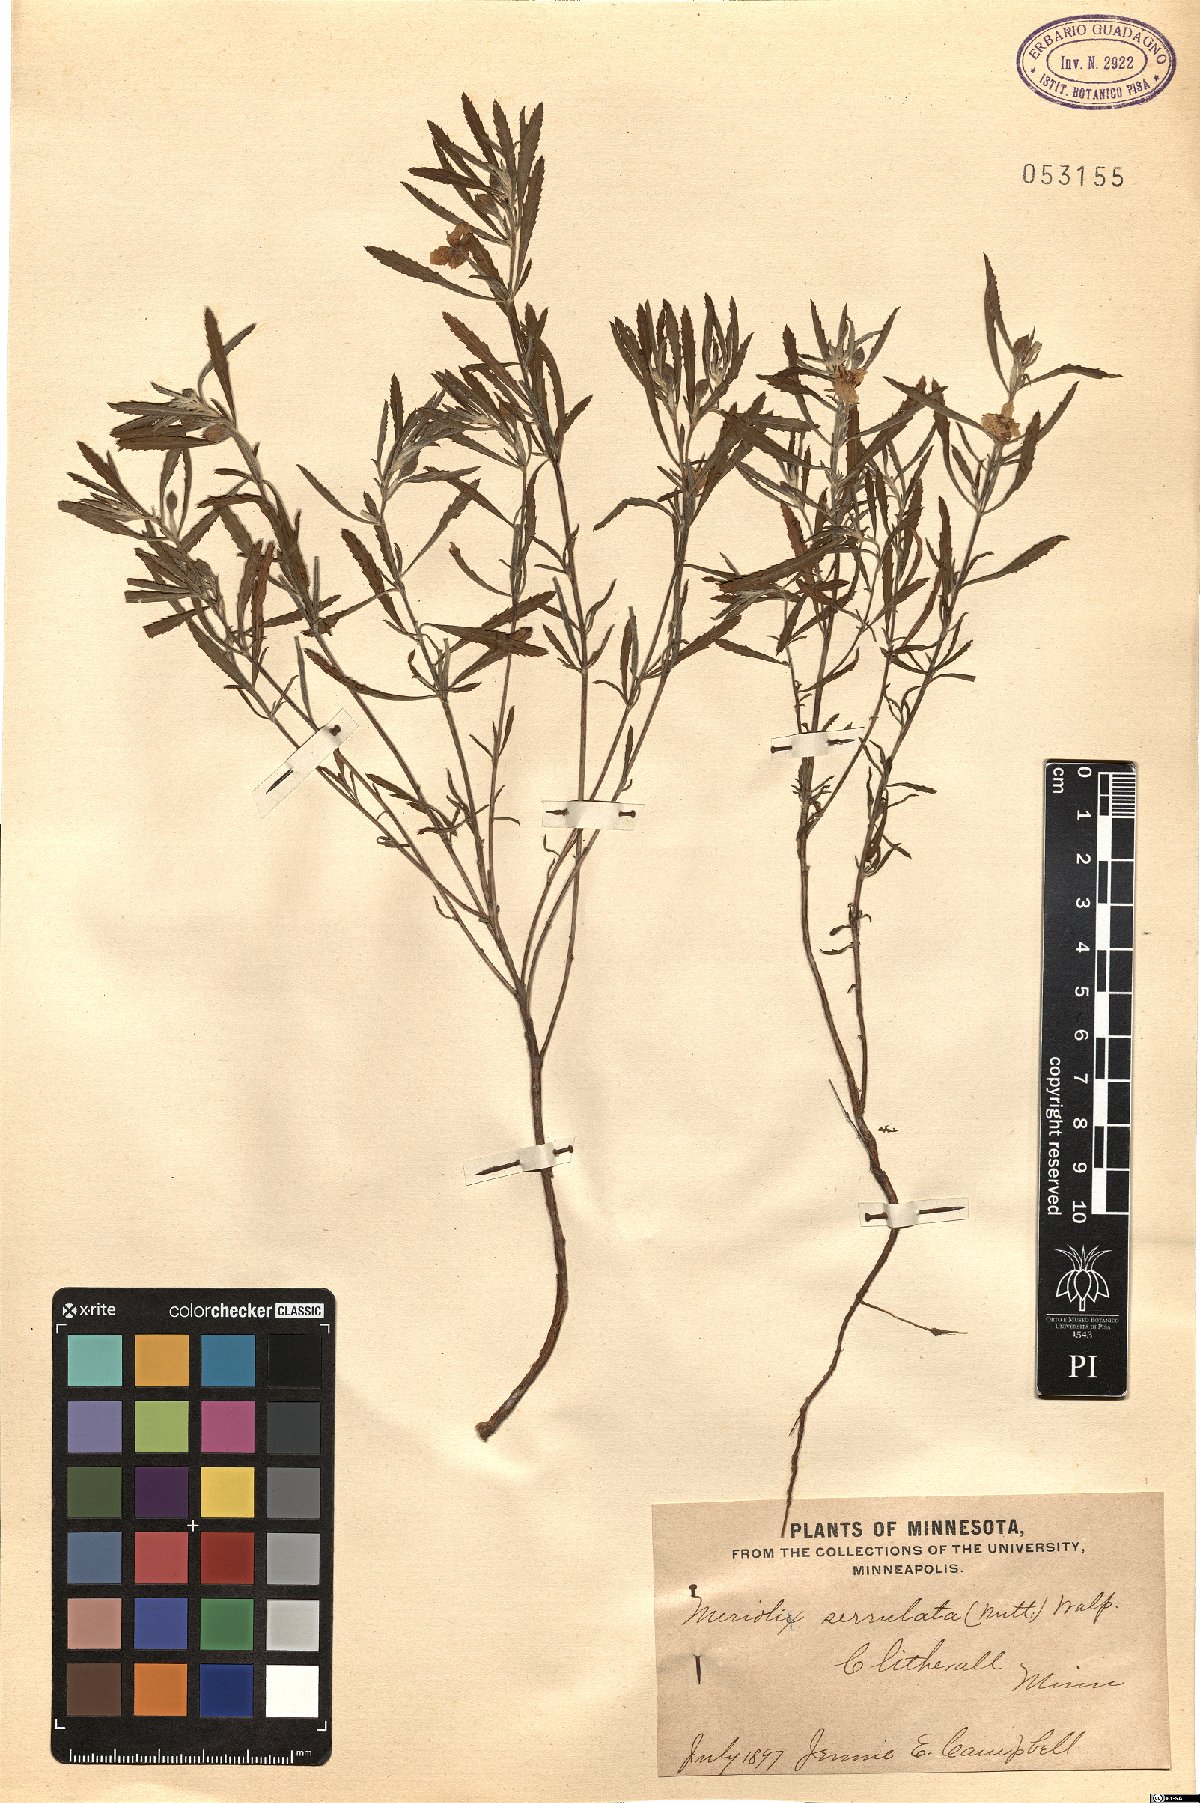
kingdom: Plantae
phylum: Tracheophyta
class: Magnoliopsida
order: Myrtales
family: Onagraceae
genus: Oenothera
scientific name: Oenothera serrulata
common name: Half-shrub calylophus
